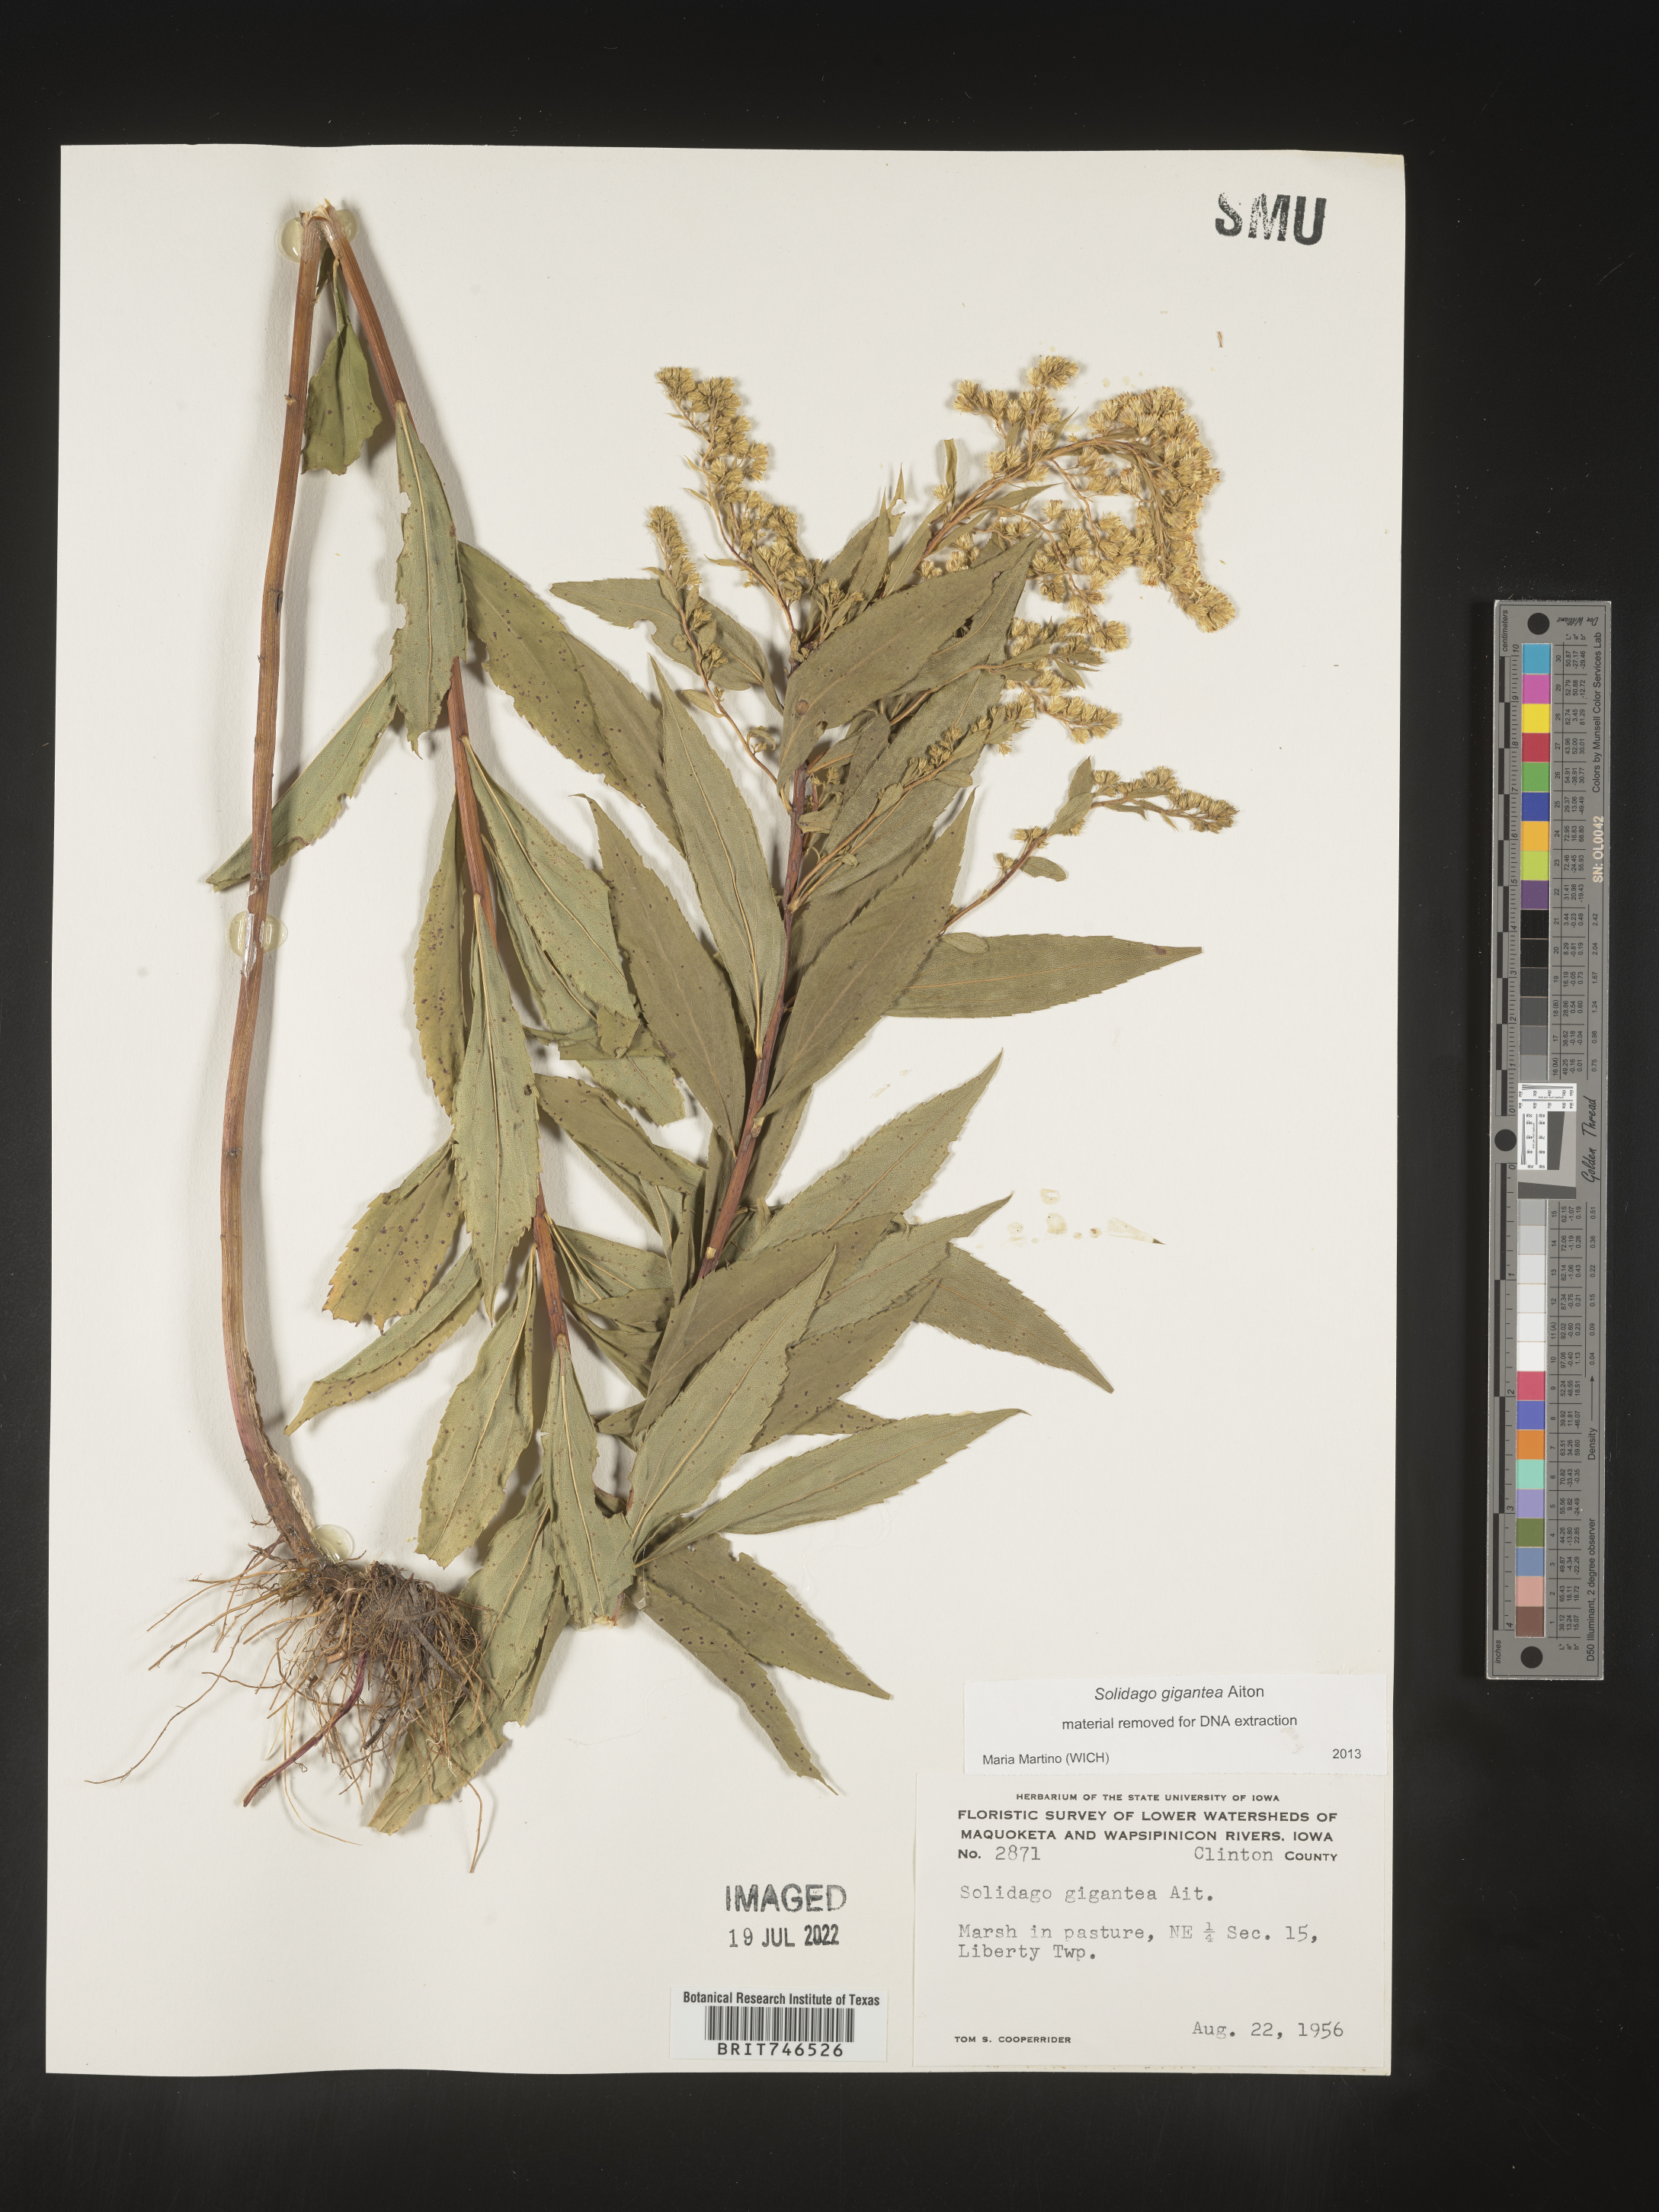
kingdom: Plantae
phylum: Tracheophyta
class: Magnoliopsida
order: Asterales
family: Asteraceae
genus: Solidago
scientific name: Solidago gigantea
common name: Giant goldenrod
